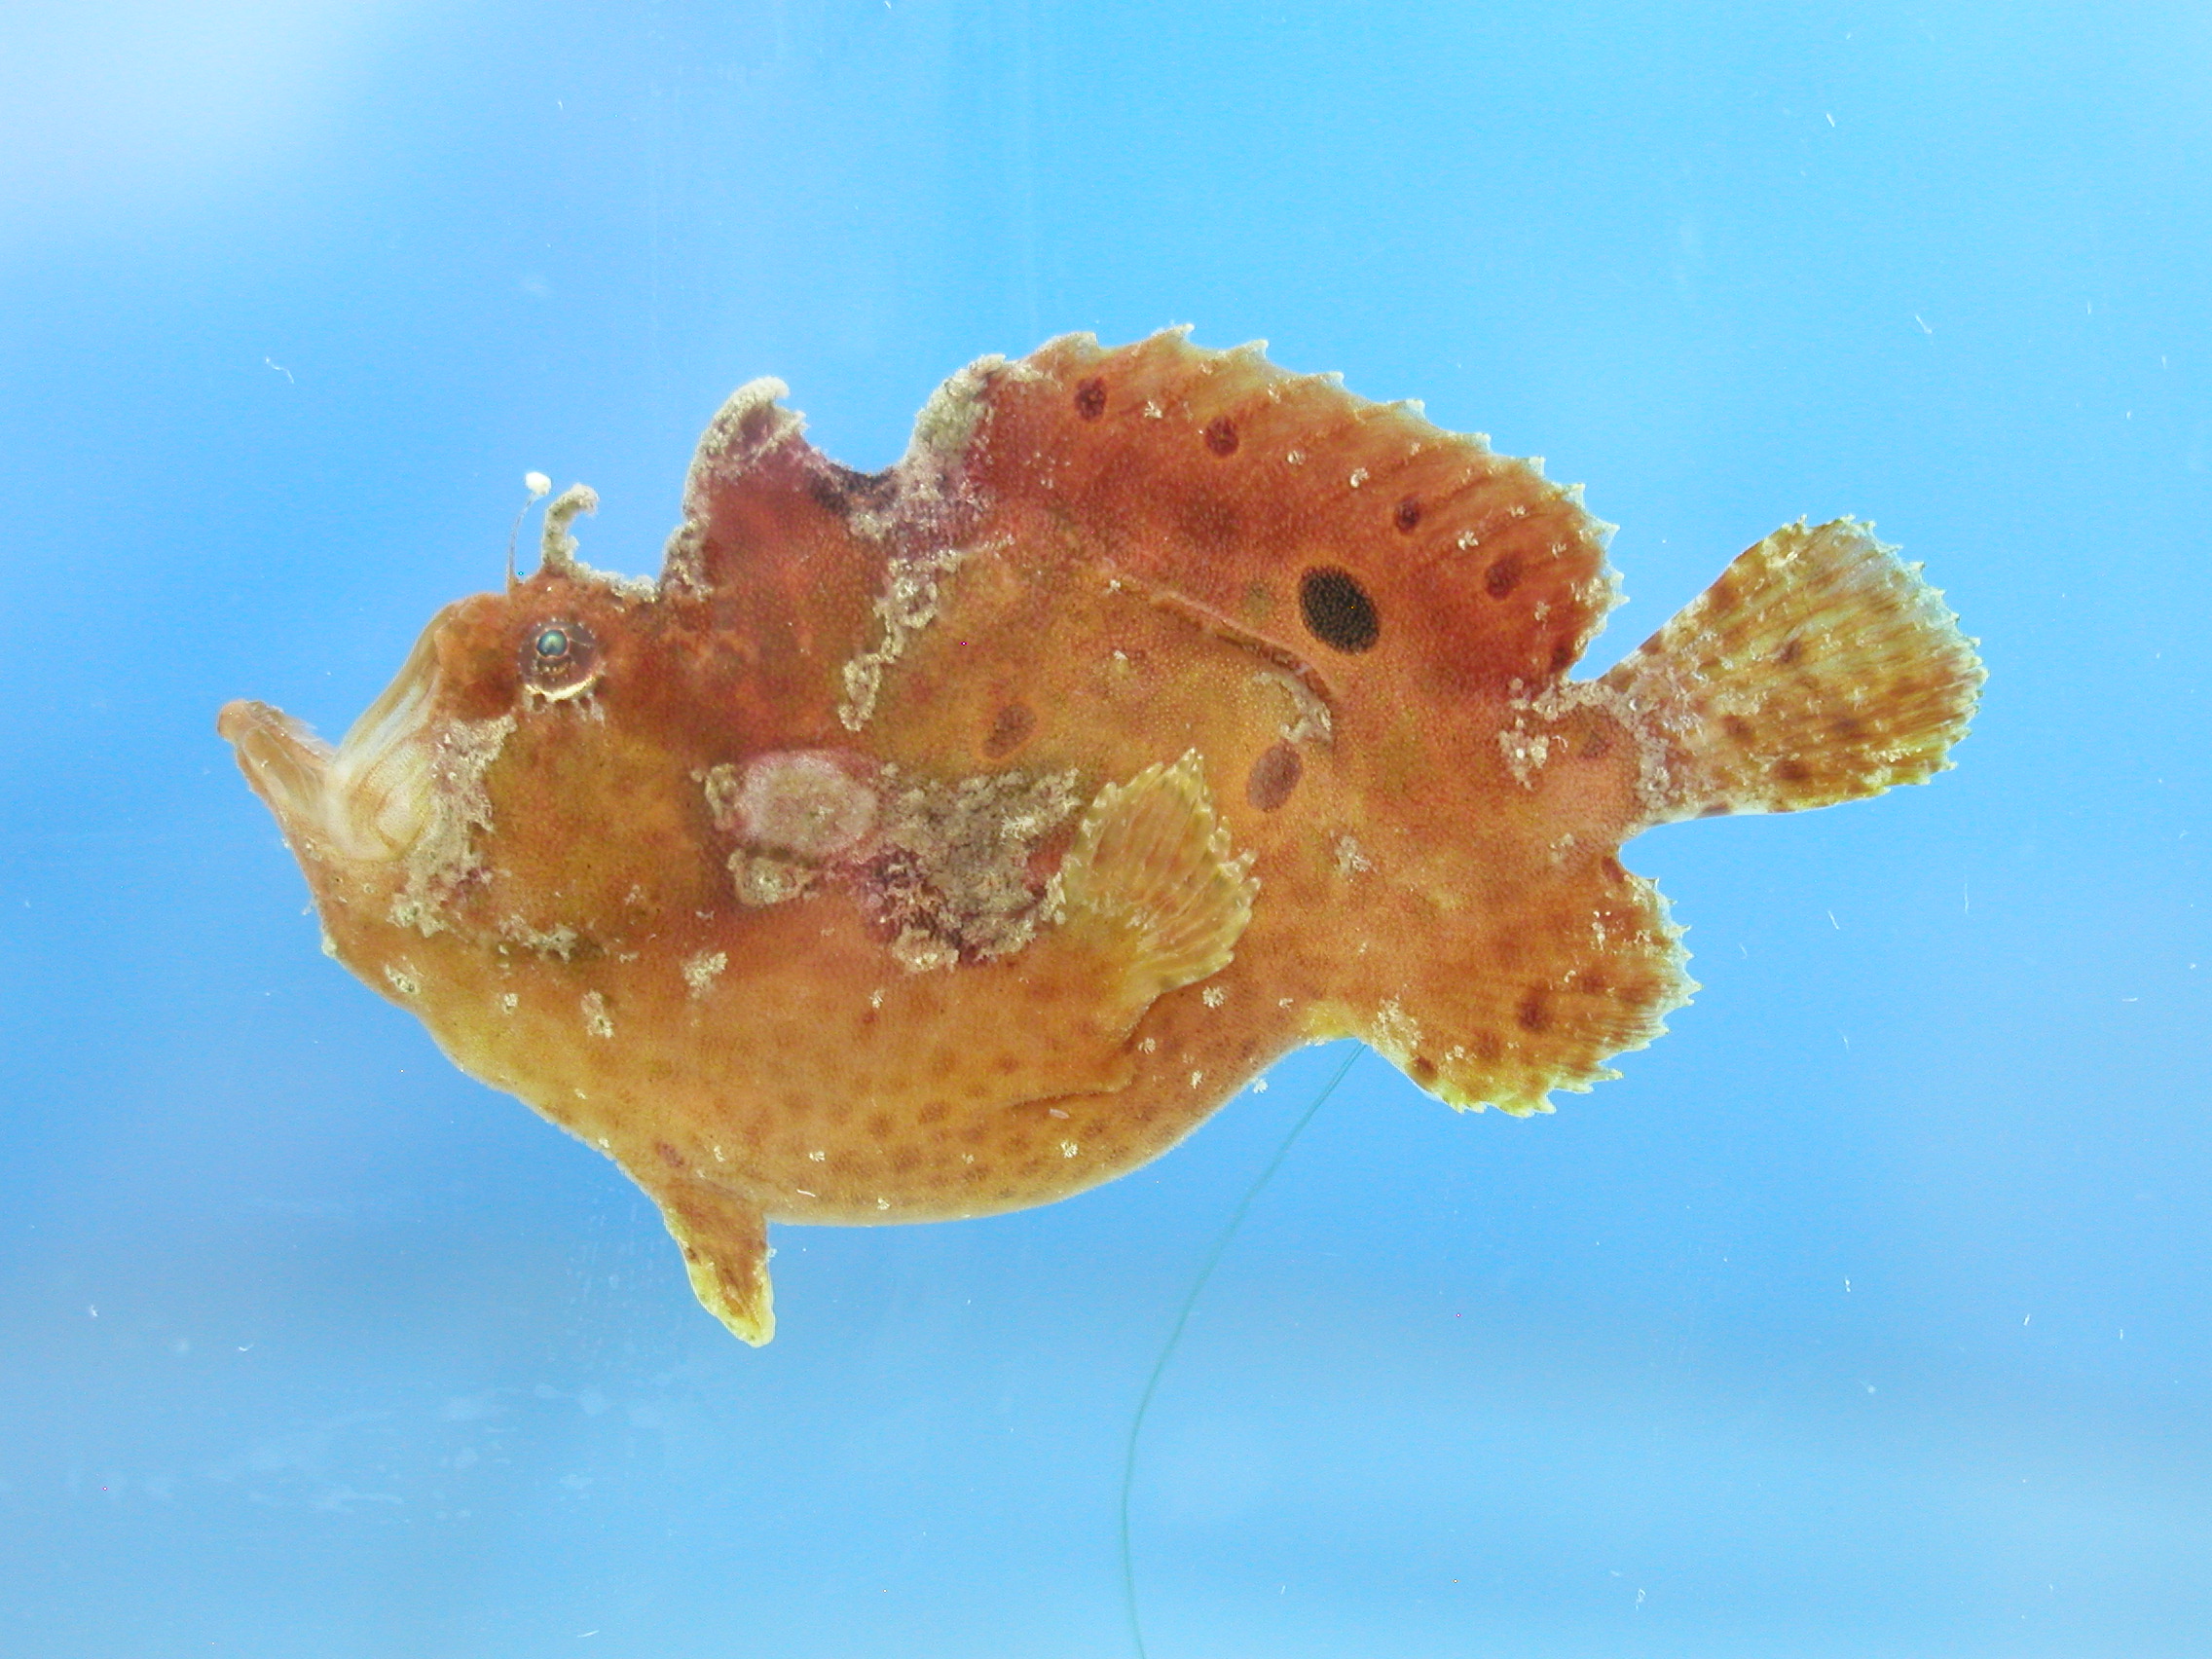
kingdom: Animalia
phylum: Chordata
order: Lophiiformes
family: Antennariidae
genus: Antennatus
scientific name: Antennatus coccineus
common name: Scarlet frogfish
